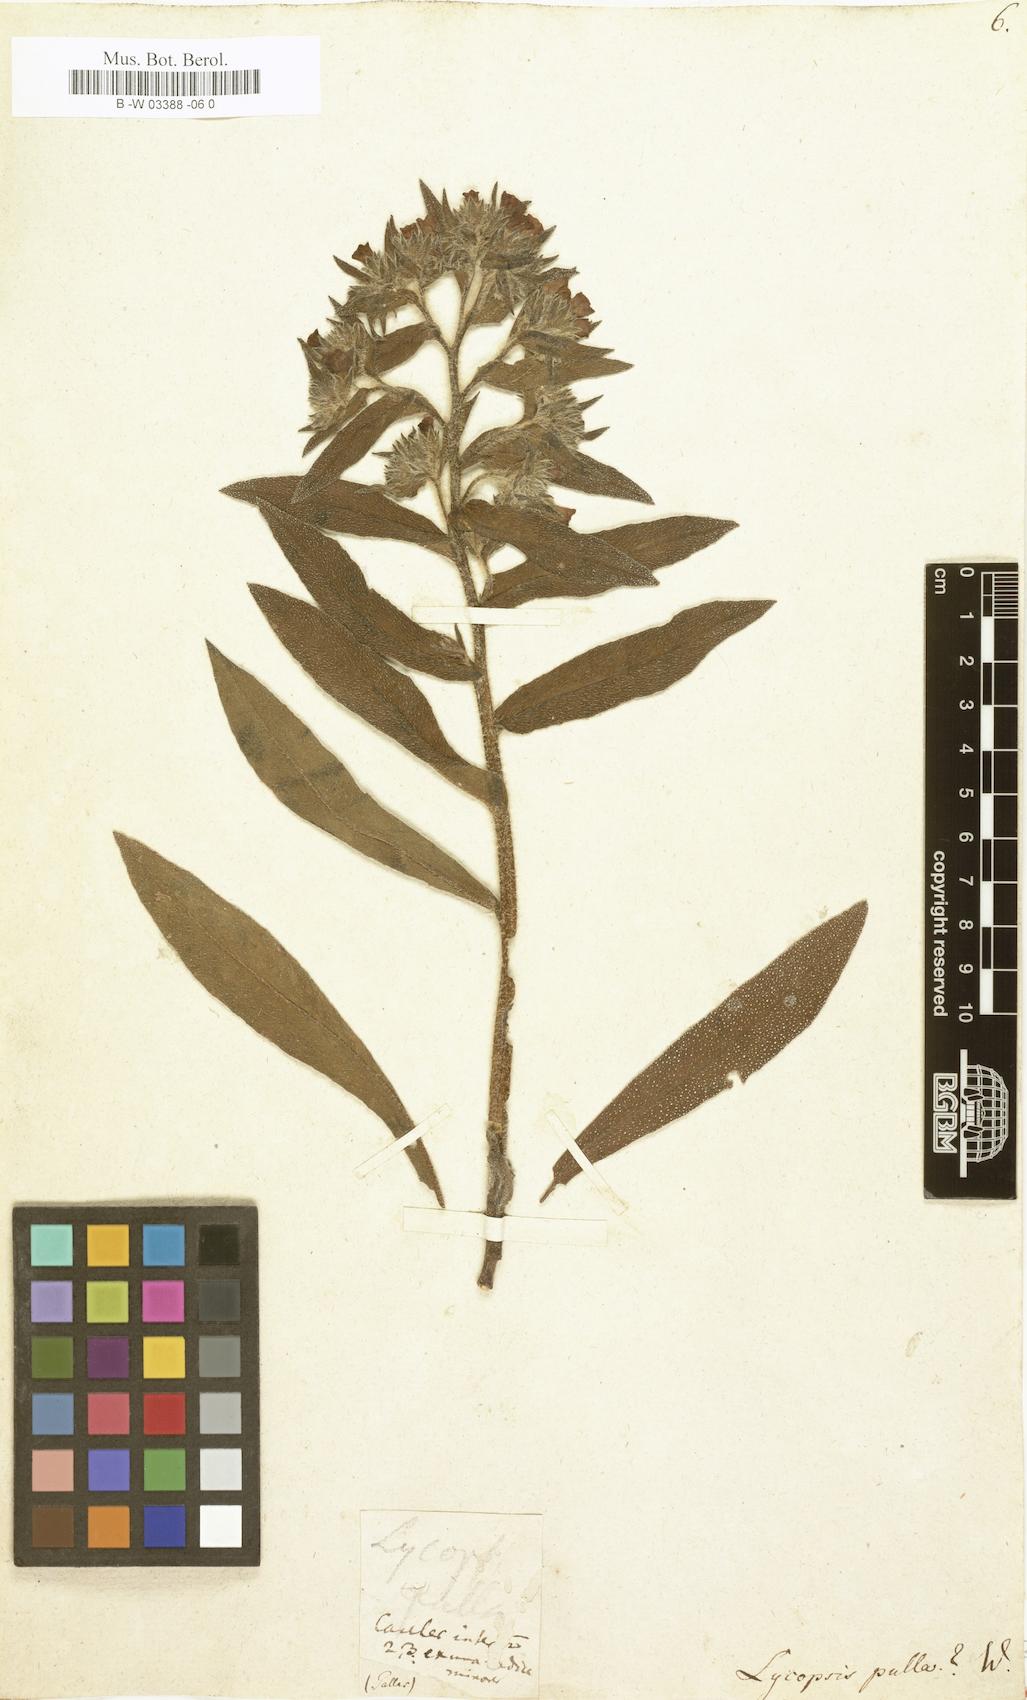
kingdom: Plantae
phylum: Tracheophyta
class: Magnoliopsida
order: Boraginales
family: Boraginaceae
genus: Nonea
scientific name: Nonea
